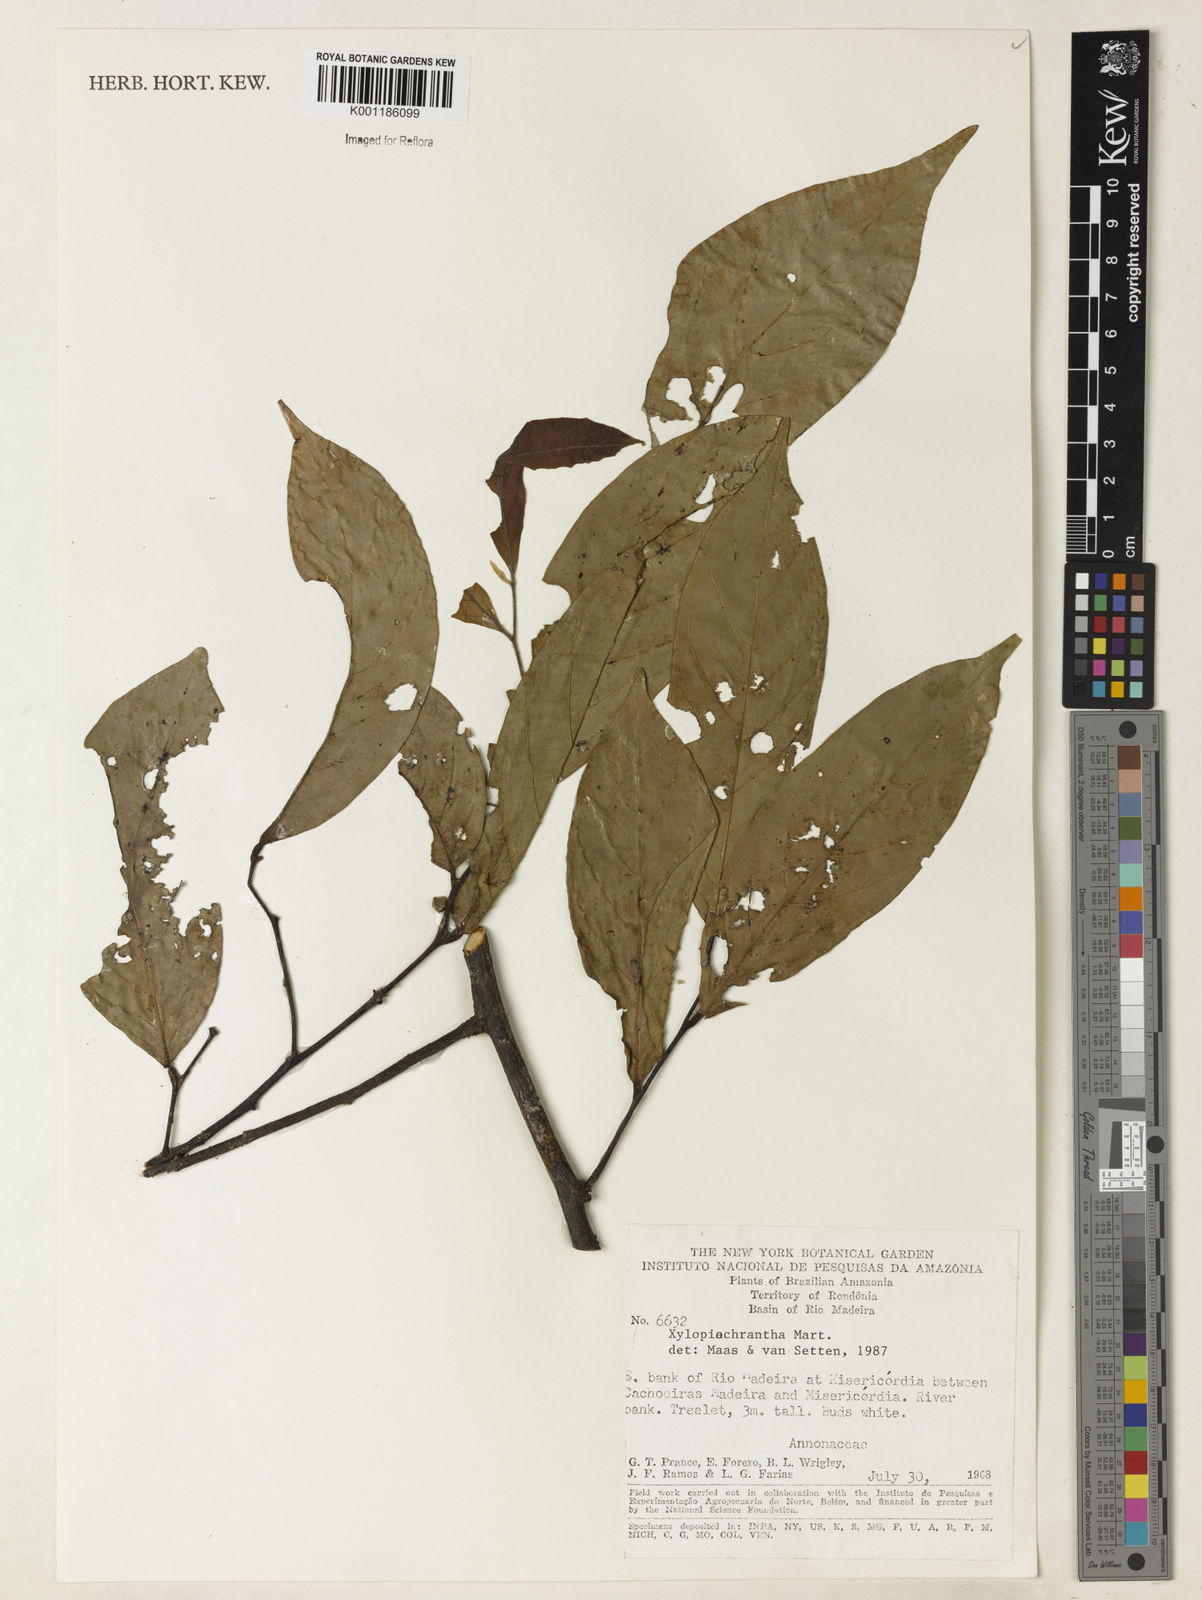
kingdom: Plantae
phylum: Tracheophyta
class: Magnoliopsida
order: Magnoliales
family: Annonaceae
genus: Xylopia
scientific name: Xylopia ochrantha
